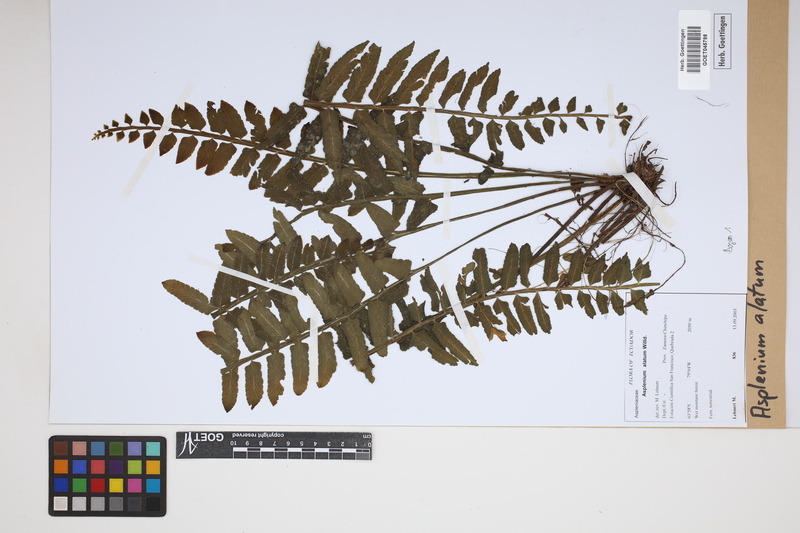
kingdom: Plantae
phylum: Tracheophyta
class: Polypodiopsida
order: Polypodiales
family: Aspleniaceae
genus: Asplenium
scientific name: Asplenium alatum
